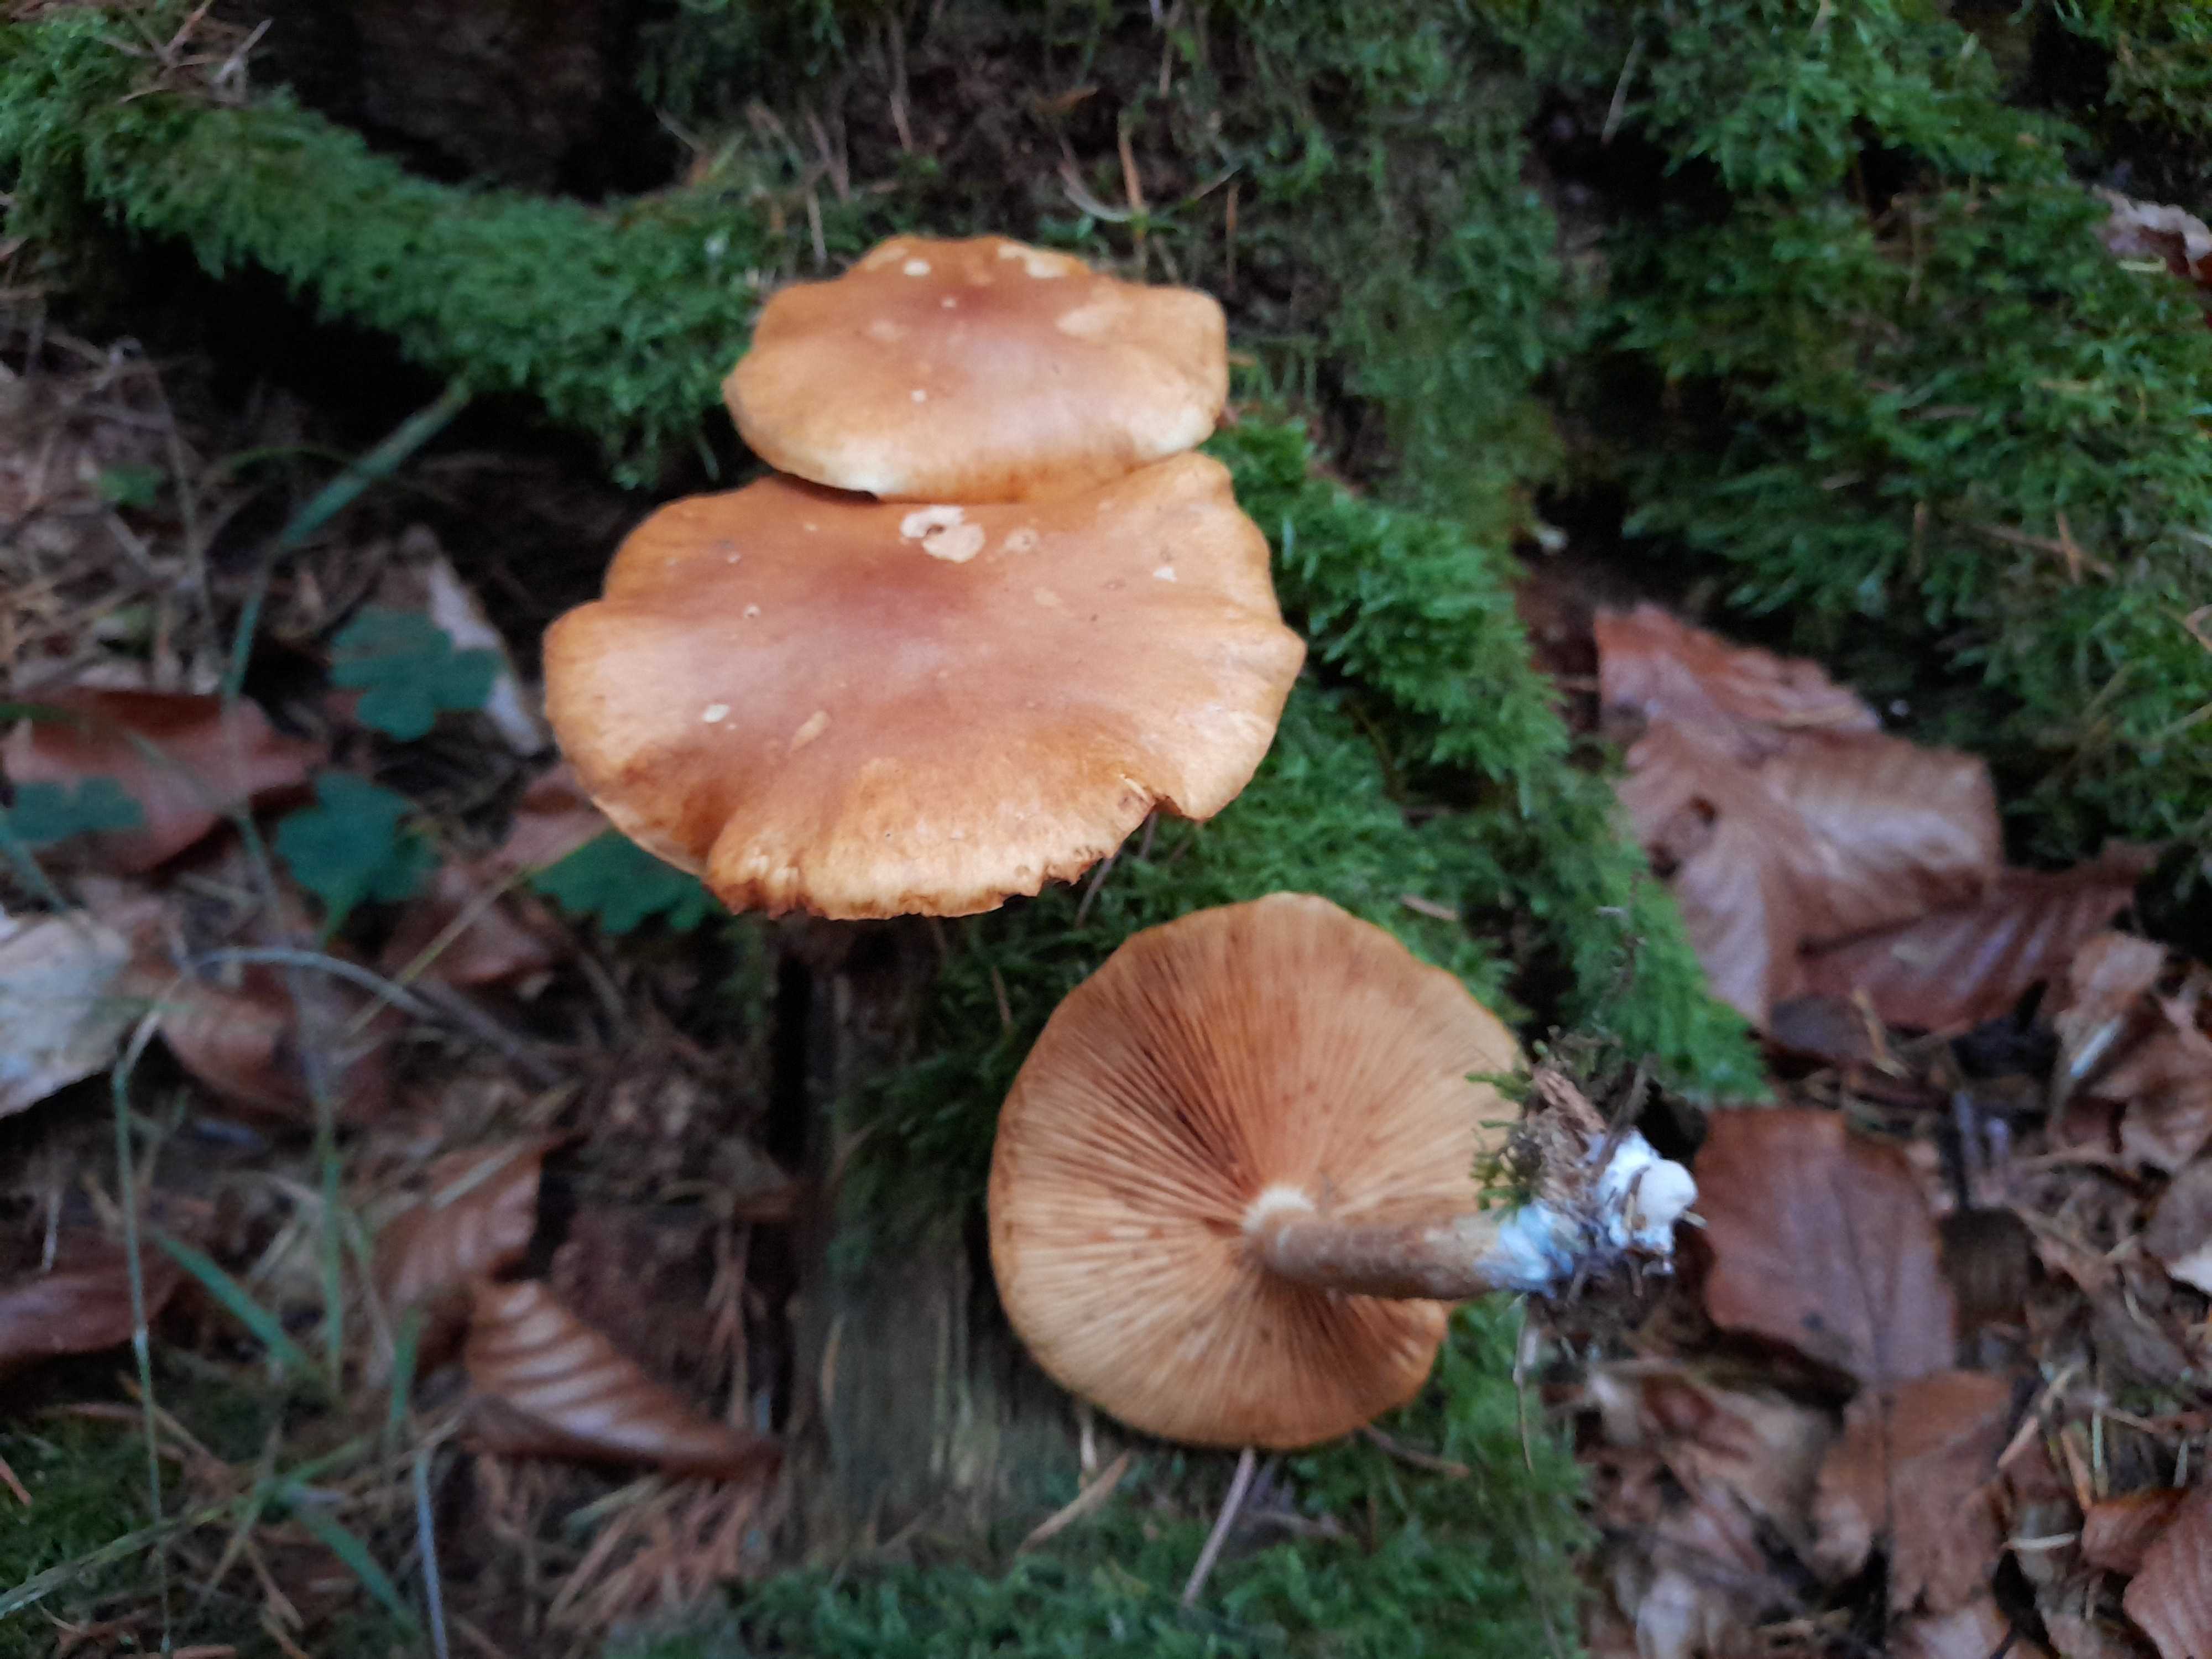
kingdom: Fungi
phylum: Basidiomycota
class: Agaricomycetes
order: Agaricales
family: Hymenogastraceae
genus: Gymnopilus
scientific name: Gymnopilus penetrans
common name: plettet flammehat
